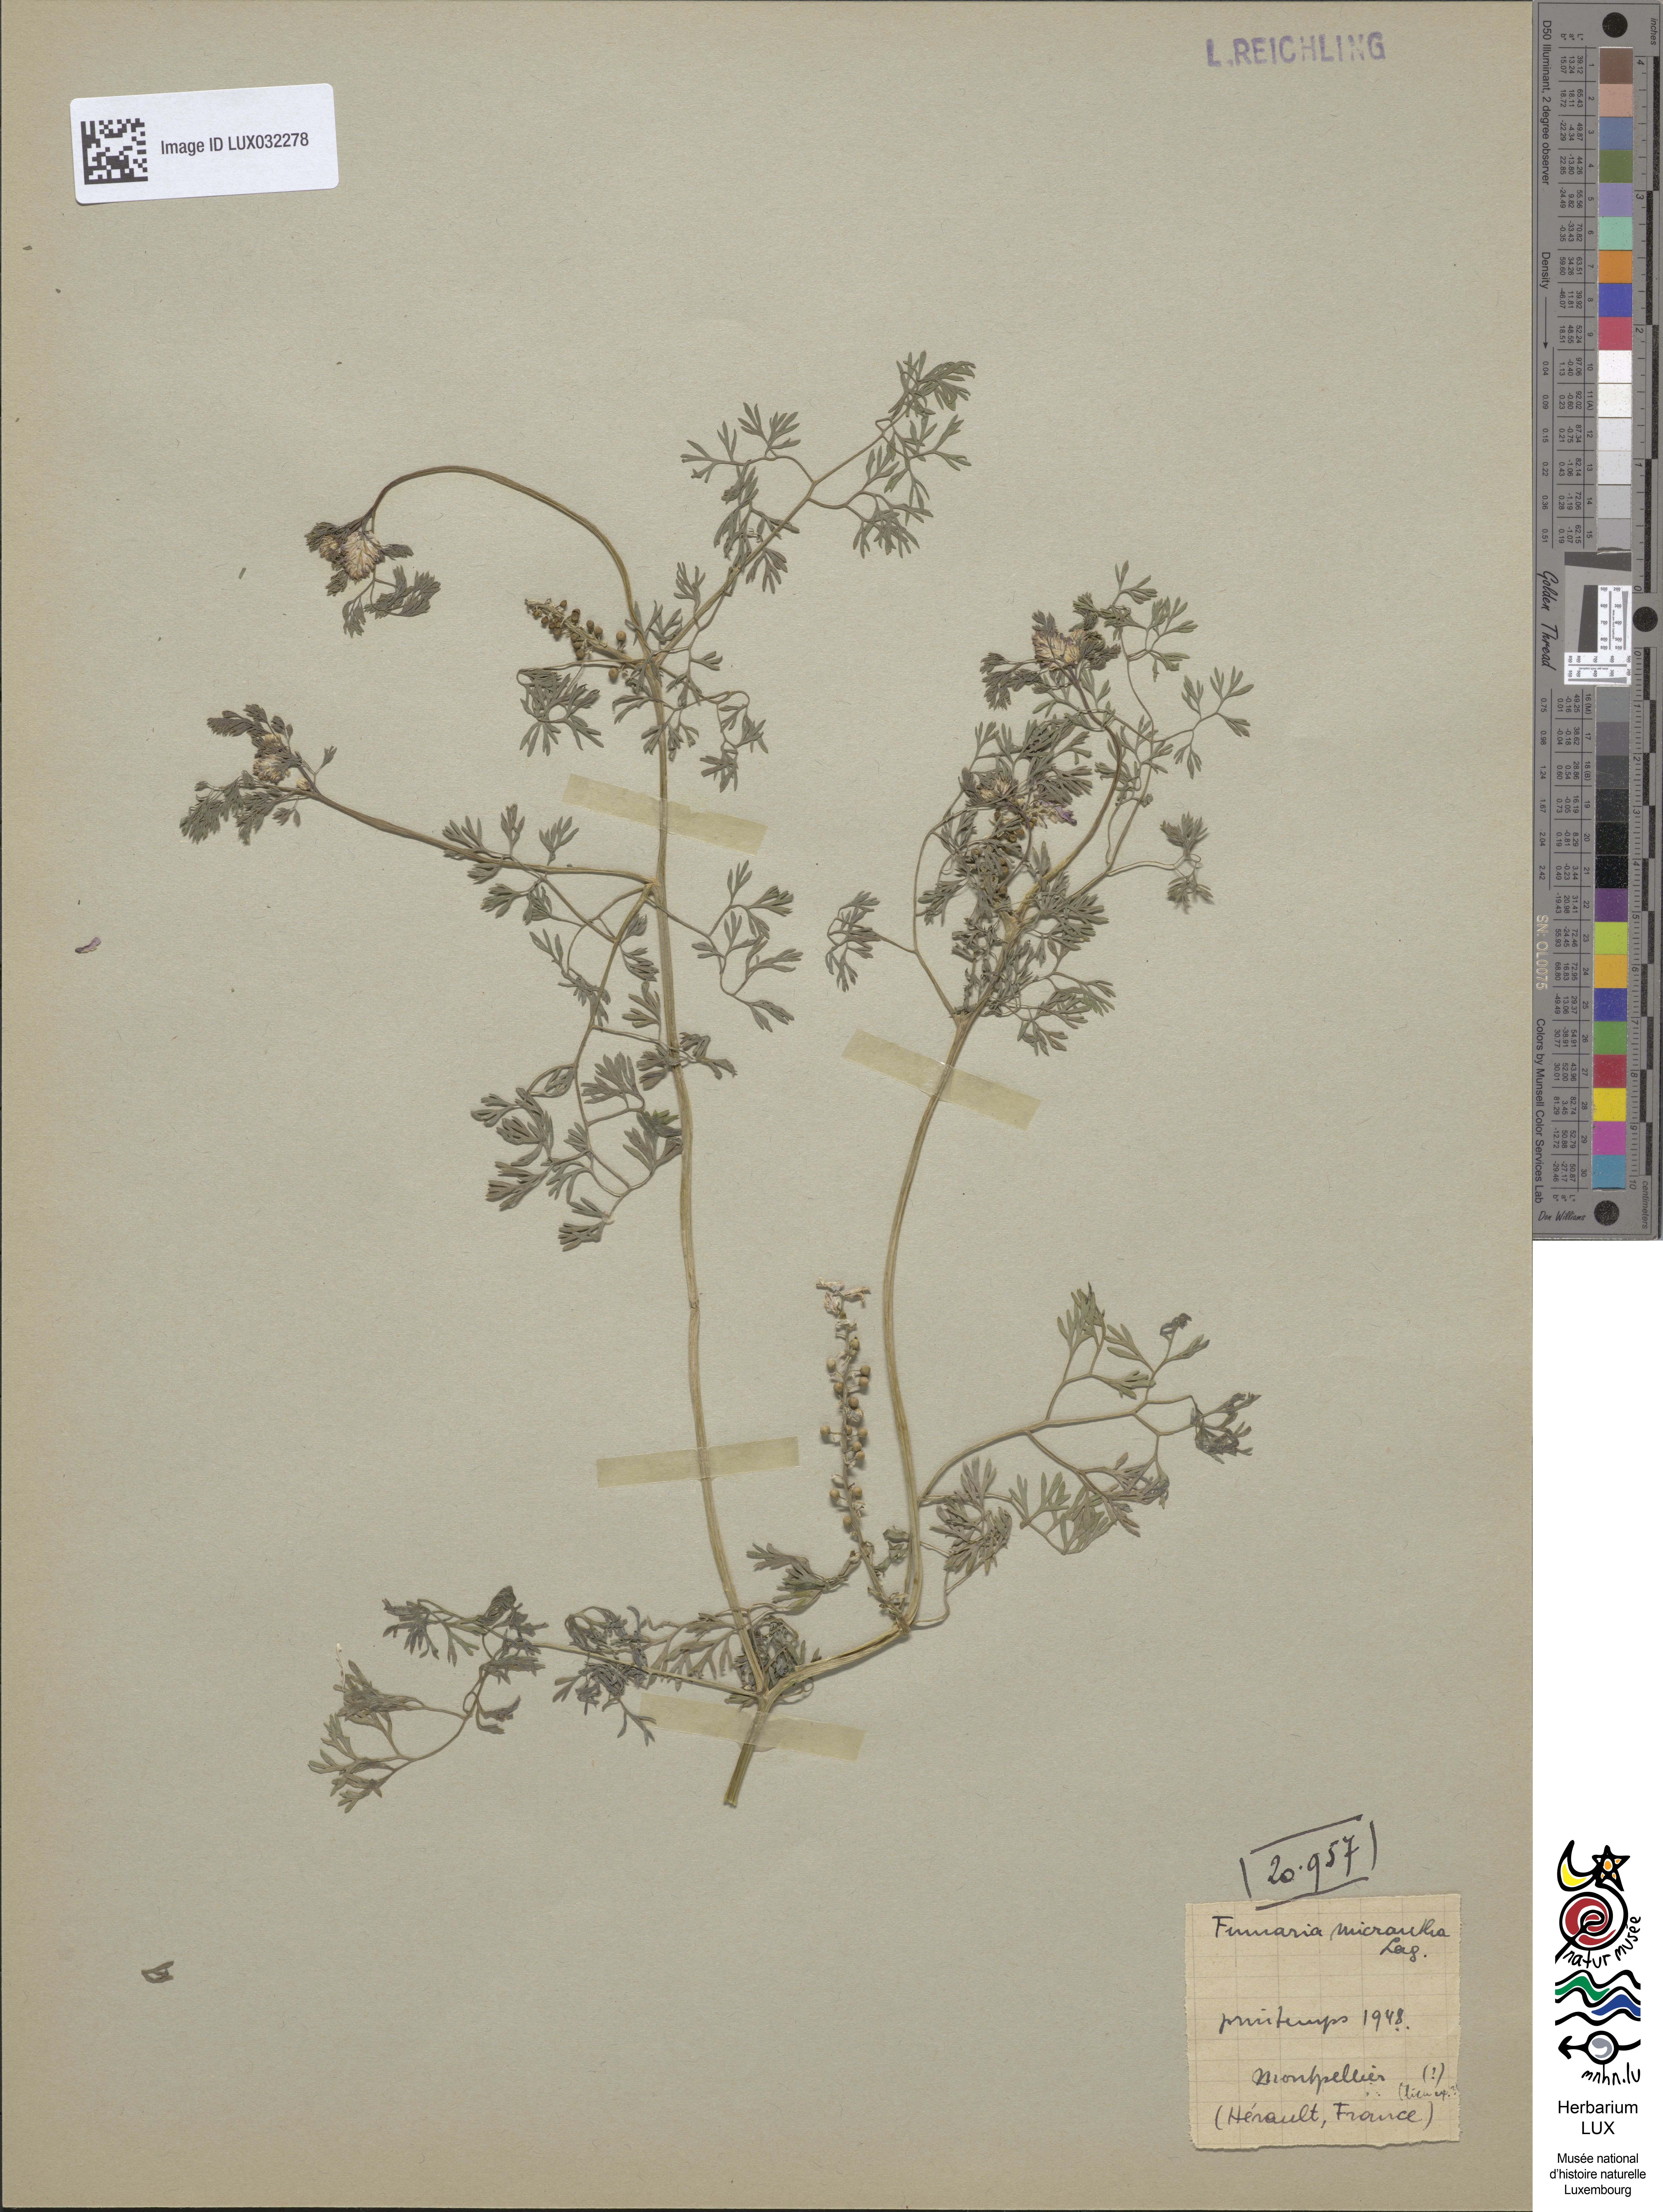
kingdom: Plantae
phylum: Tracheophyta
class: Magnoliopsida
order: Ranunculales
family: Papaveraceae
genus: Fumaria
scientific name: Fumaria densiflora
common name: Dense-flowered fumitory
